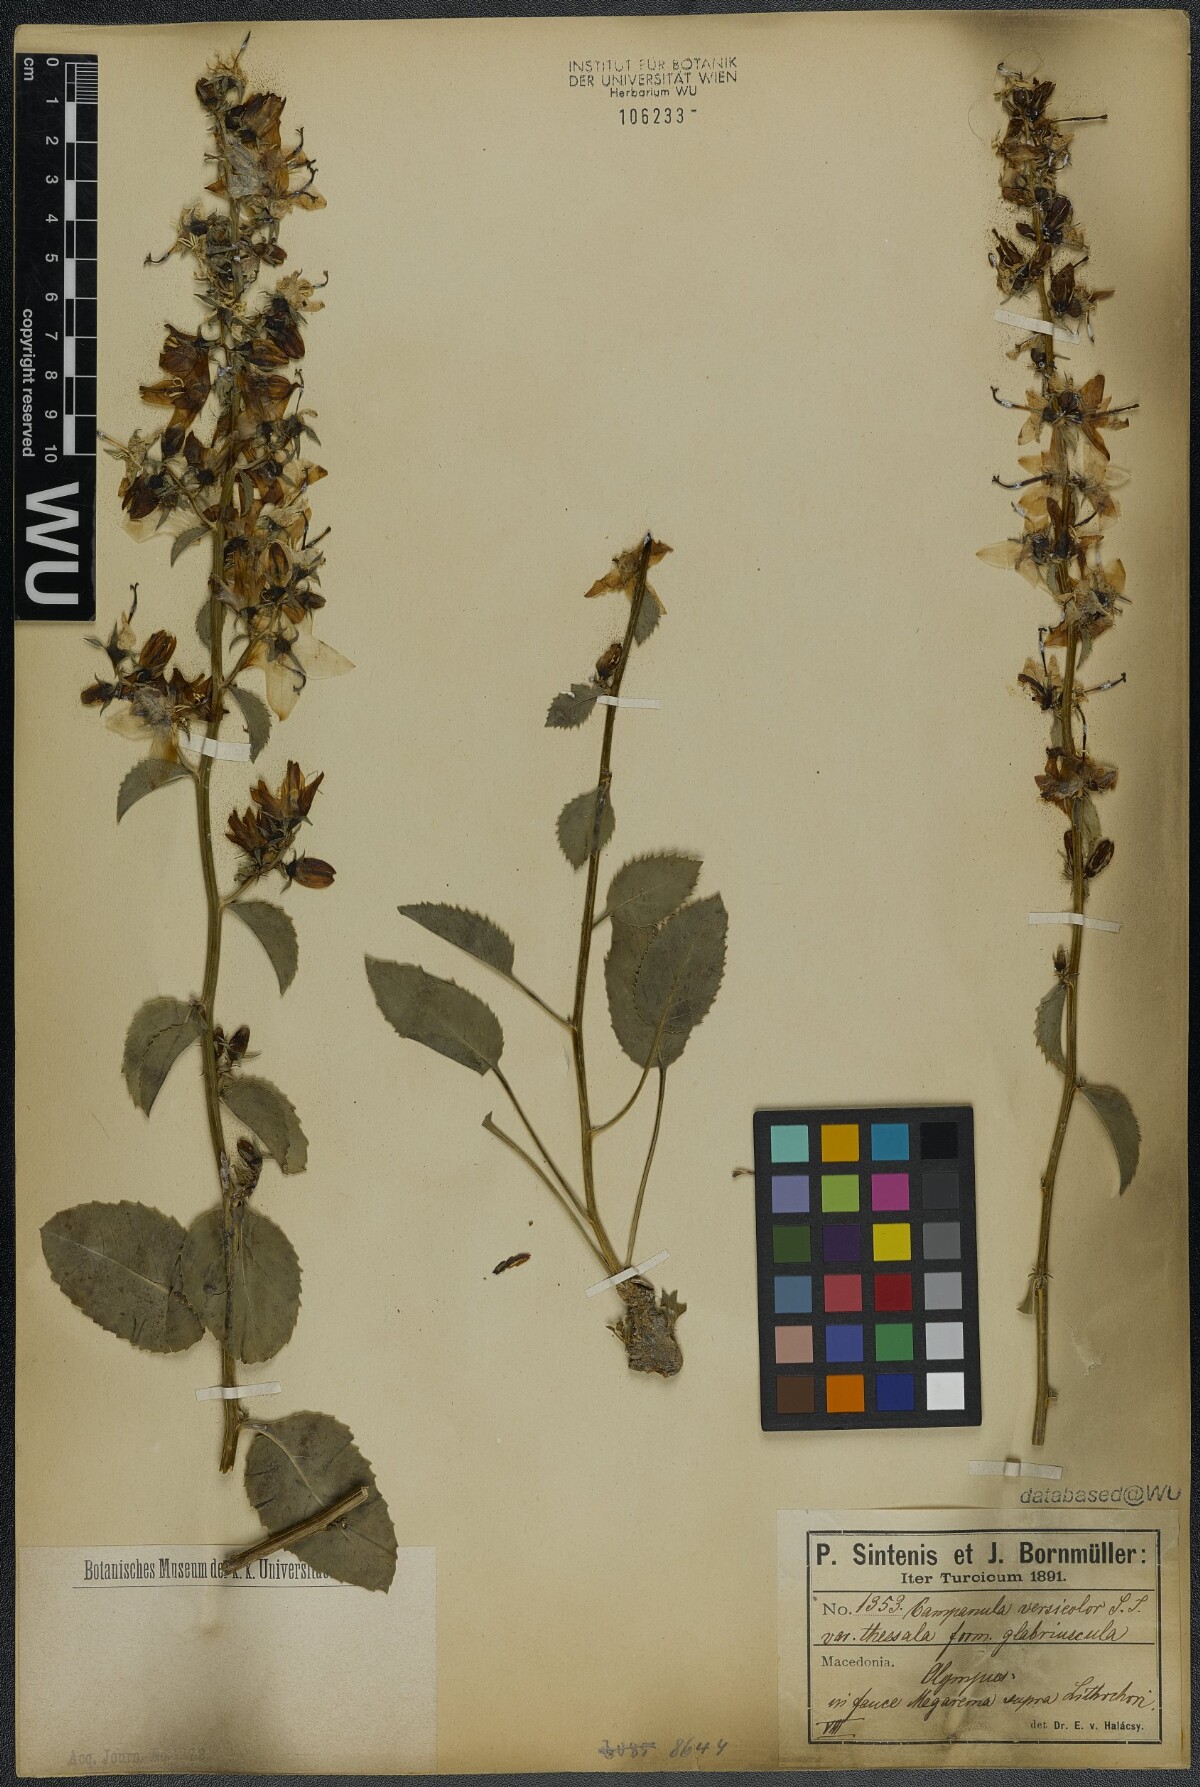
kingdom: Plantae
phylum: Tracheophyta
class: Magnoliopsida
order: Asterales
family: Campanulaceae
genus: Campanula
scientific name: Campanula versicolor
